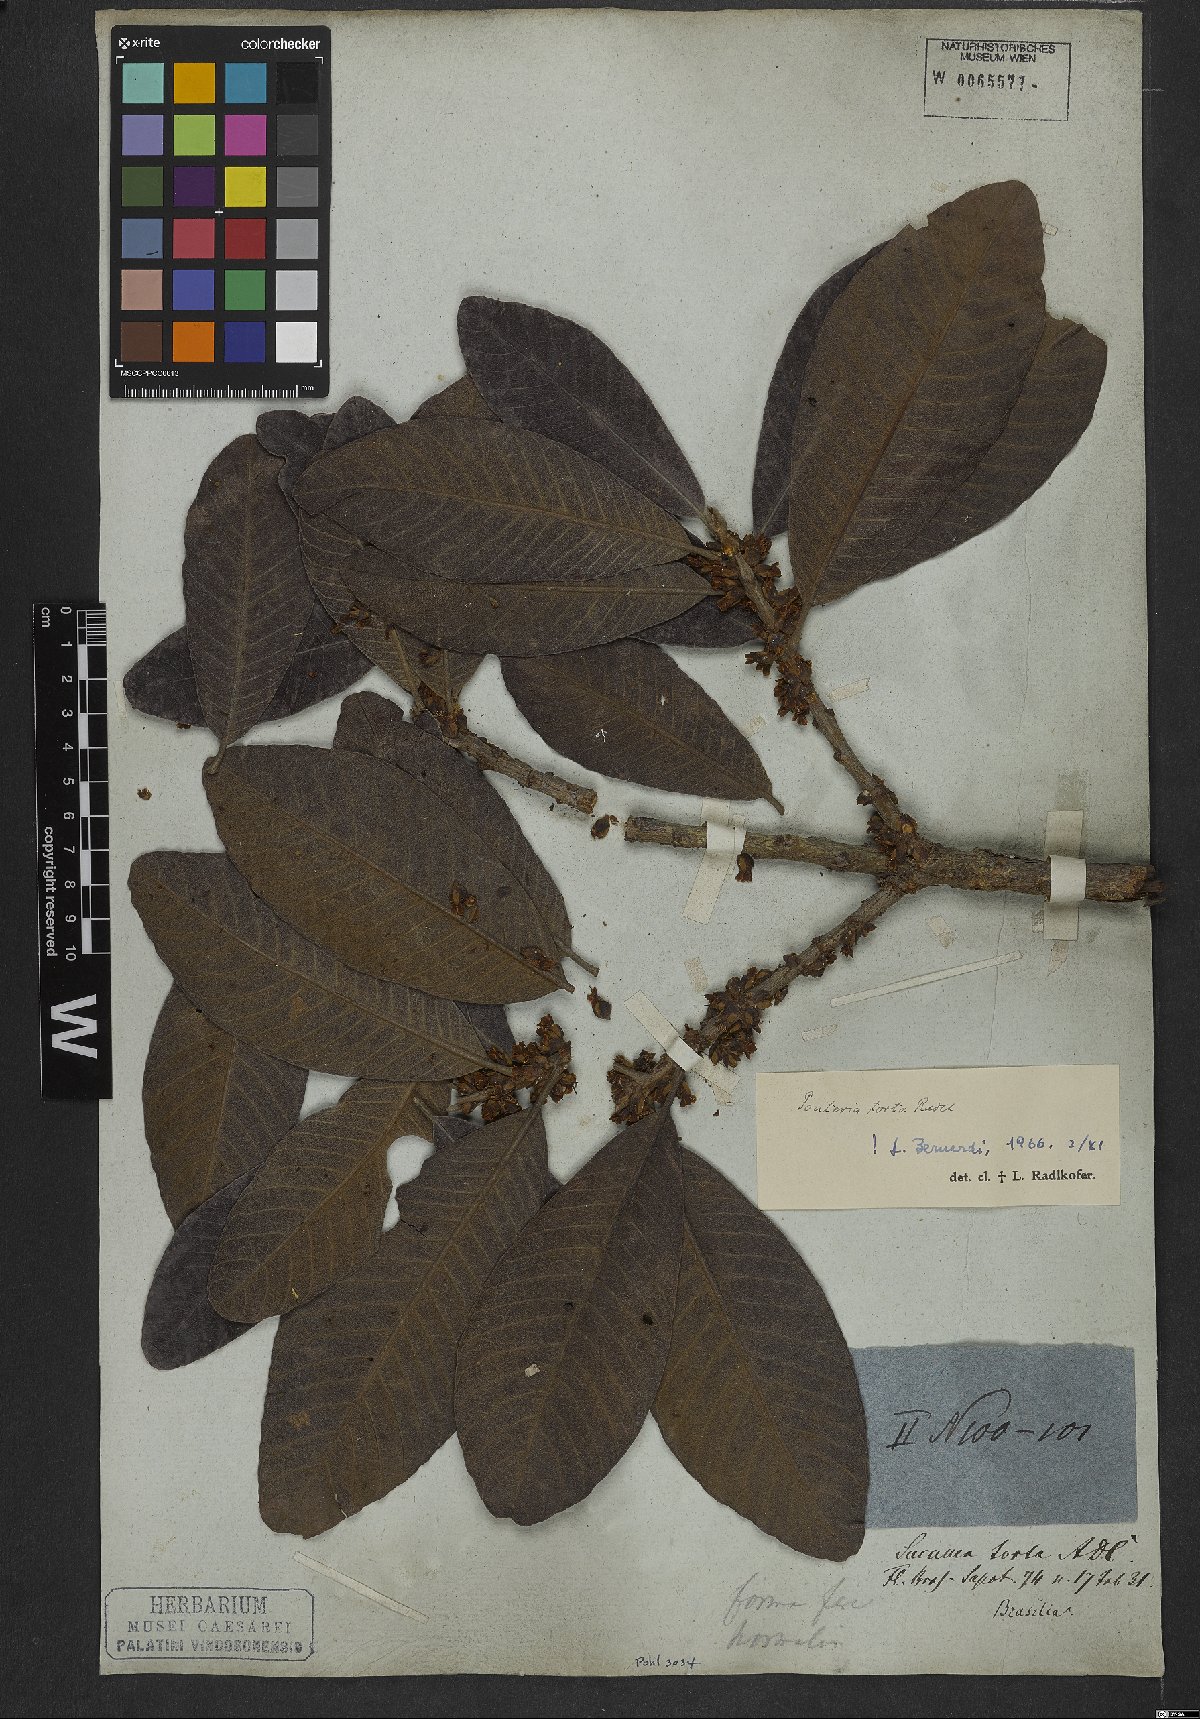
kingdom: Plantae
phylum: Tracheophyta
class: Magnoliopsida
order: Ericales
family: Sapotaceae
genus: Pouteria
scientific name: Pouteria torta
